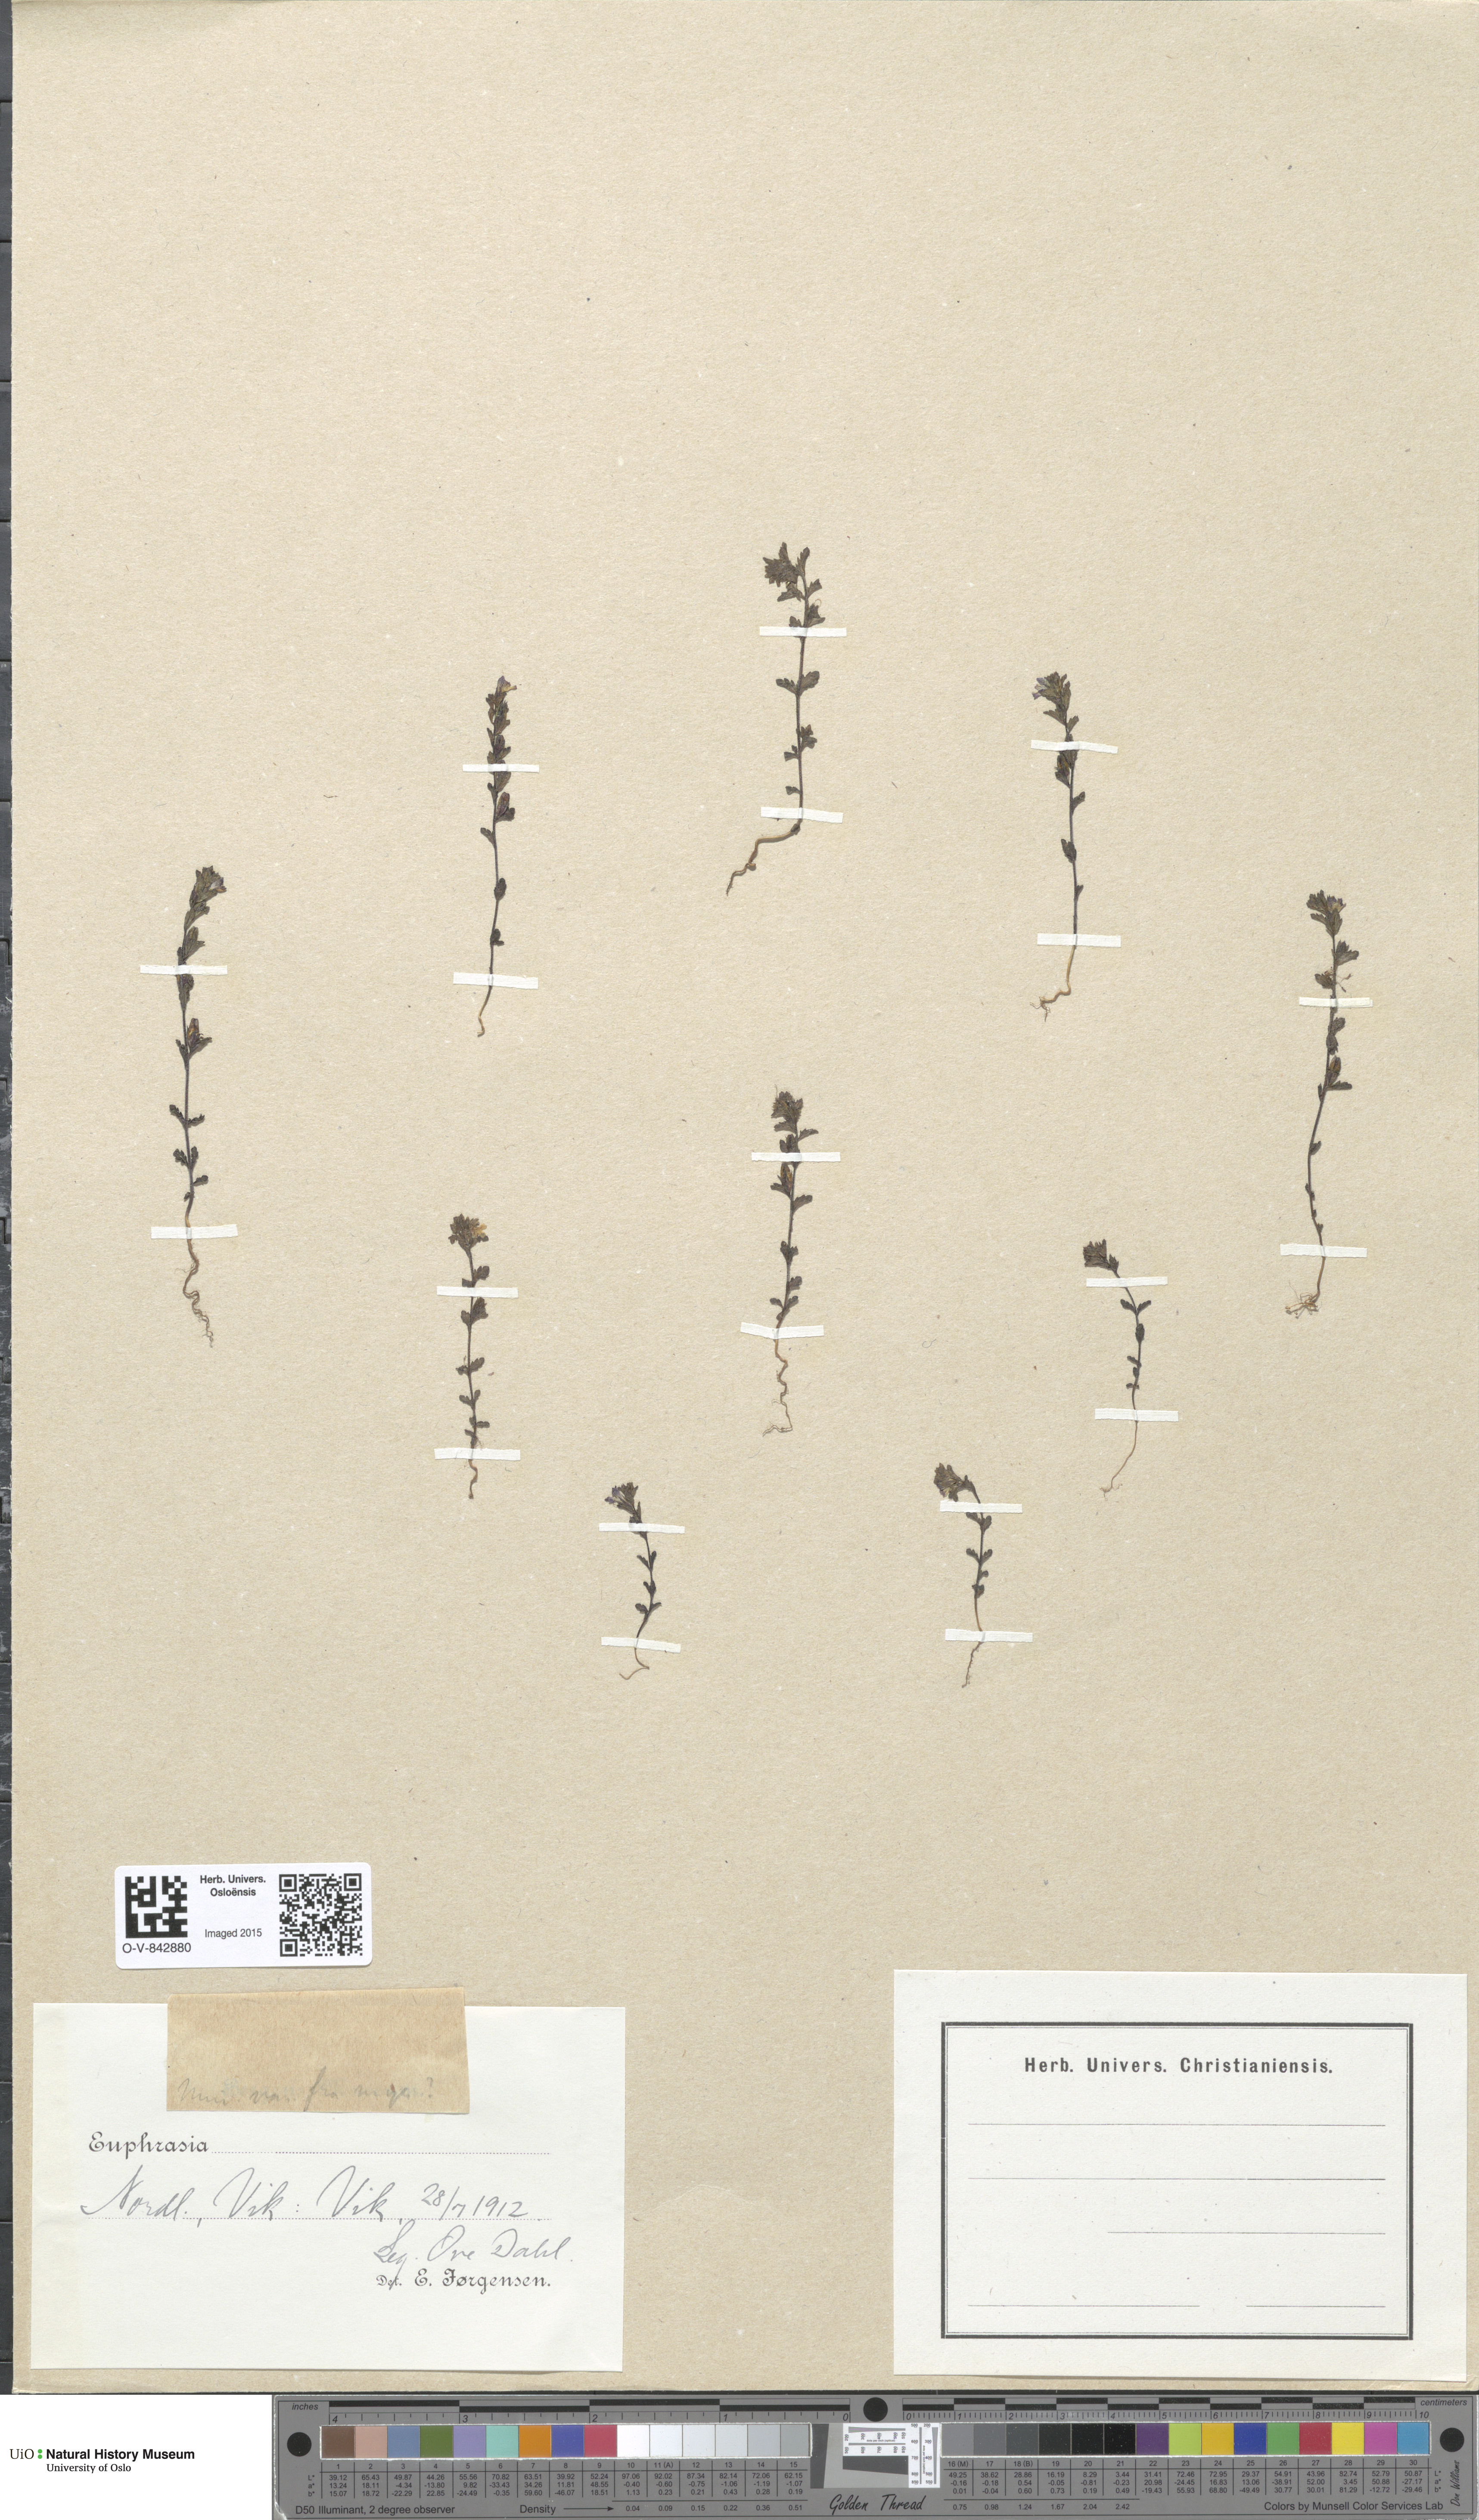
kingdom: Plantae
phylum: Tracheophyta
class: Magnoliopsida
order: Lamiales
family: Orobanchaceae
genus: Euphrasia
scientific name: Euphrasia wettsteinii
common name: Wettstein's eyebright
